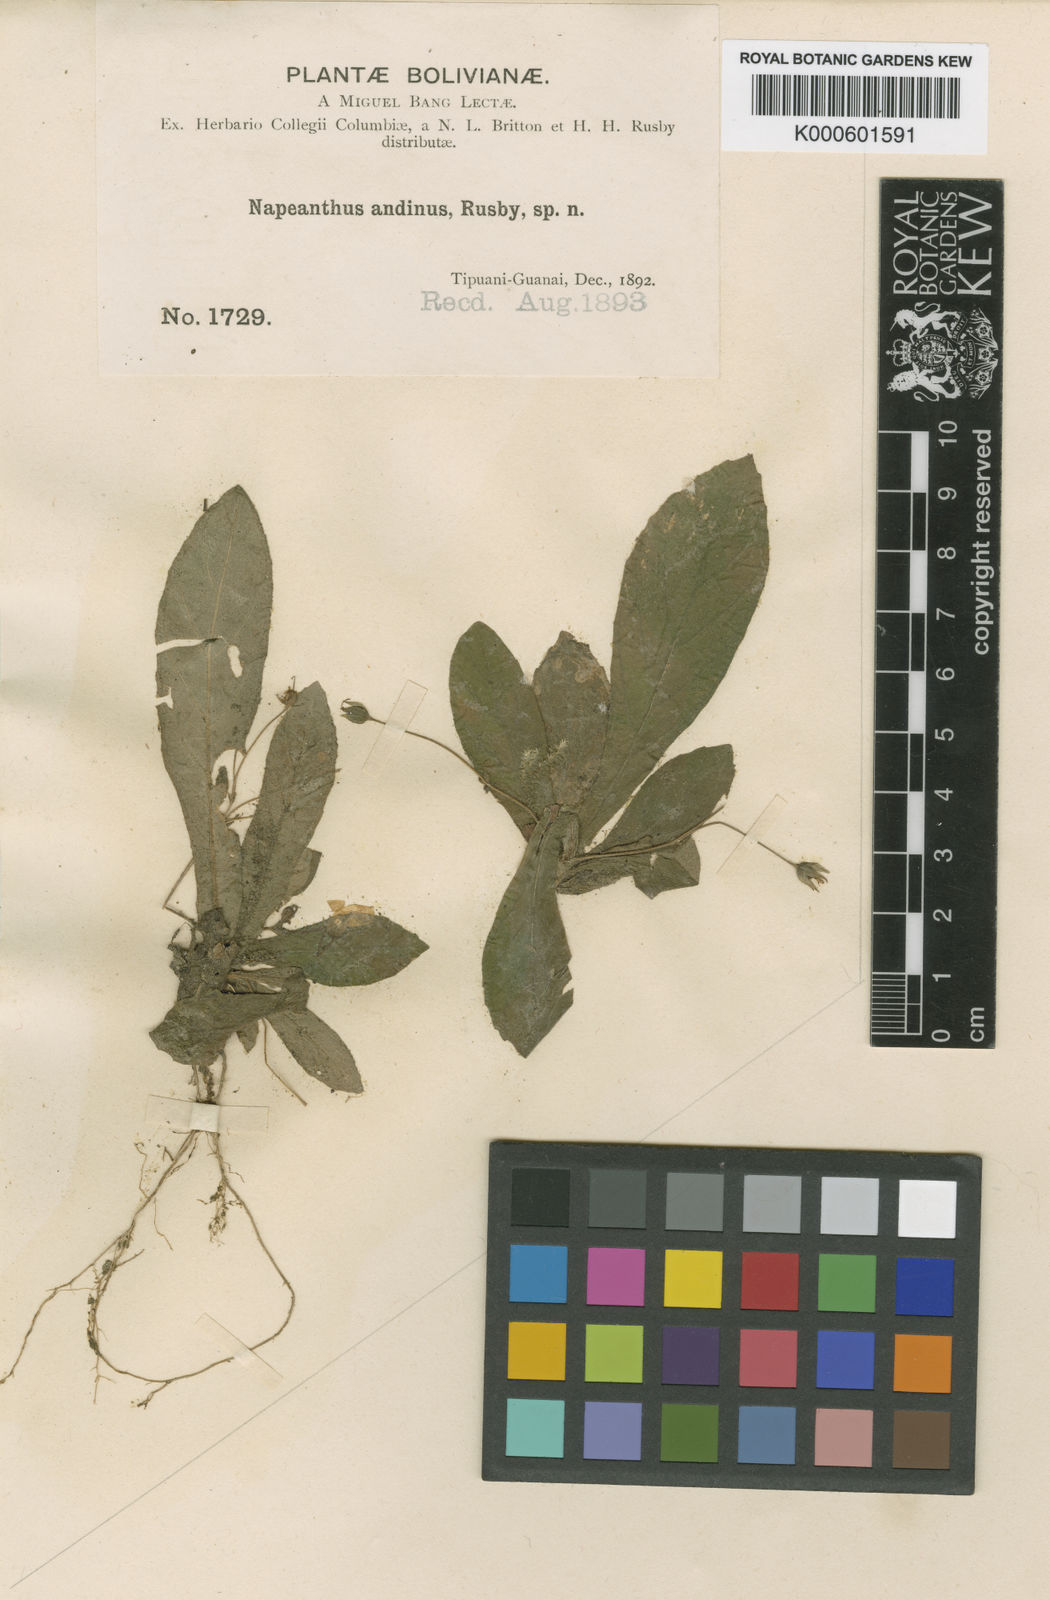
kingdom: Plantae
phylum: Tracheophyta
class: Magnoliopsida
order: Lamiales
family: Gesneriaceae
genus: Napeanthus
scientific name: Napeanthus
